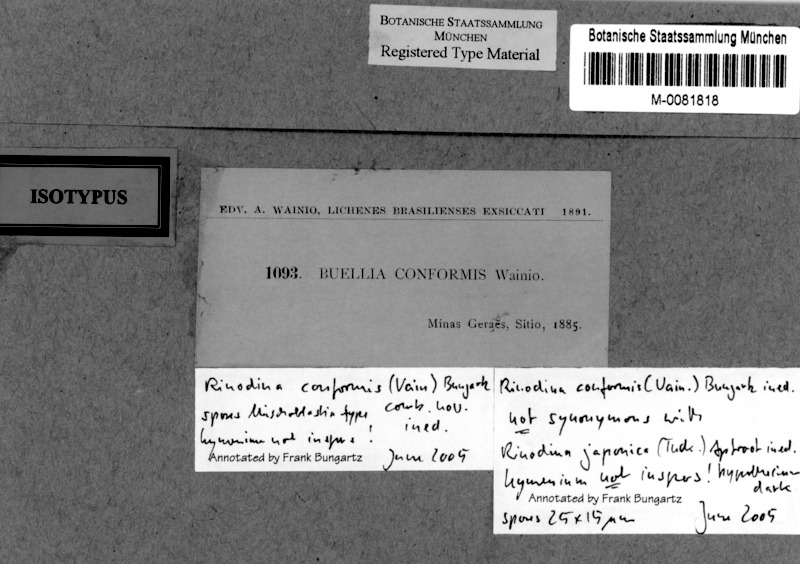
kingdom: Fungi
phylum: Ascomycota
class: Lecanoromycetes
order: Caliciales
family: Caliciaceae
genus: Buellia
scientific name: Buellia
